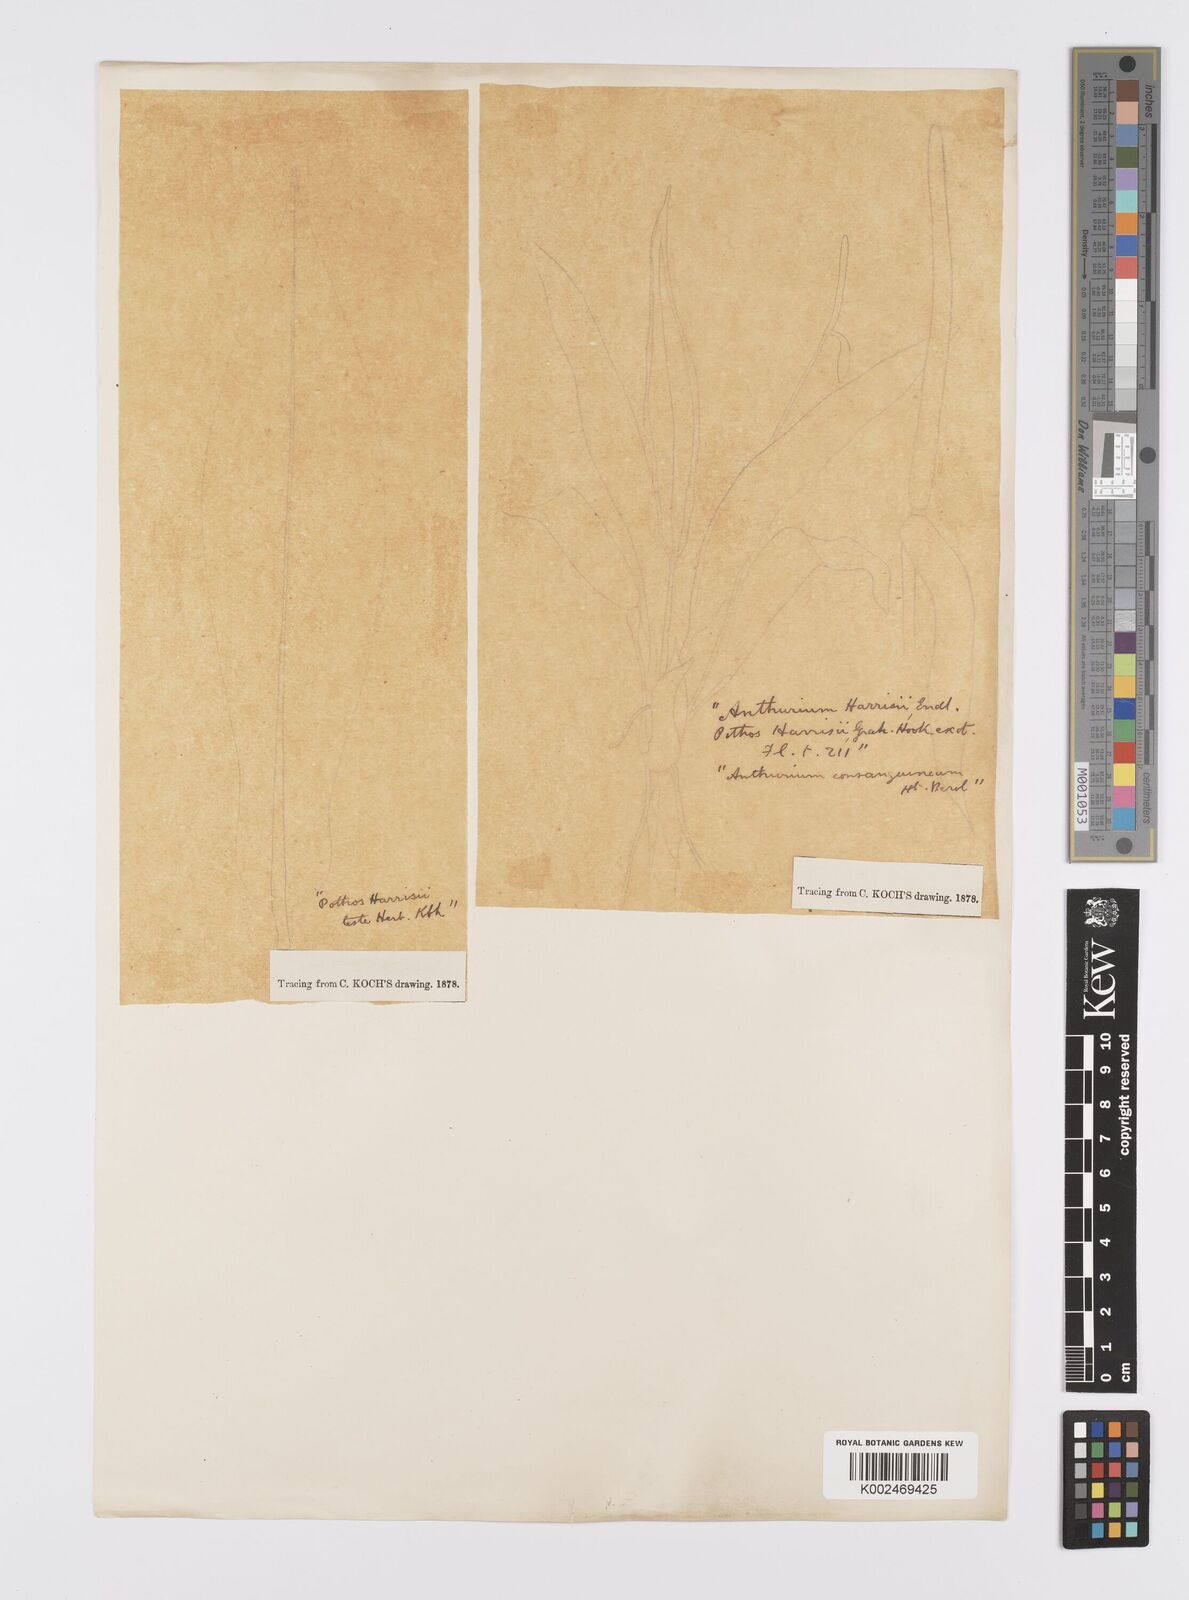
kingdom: Plantae
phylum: Tracheophyta
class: Liliopsida
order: Alismatales
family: Araceae
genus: Anthurium
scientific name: Anthurium harrisii
